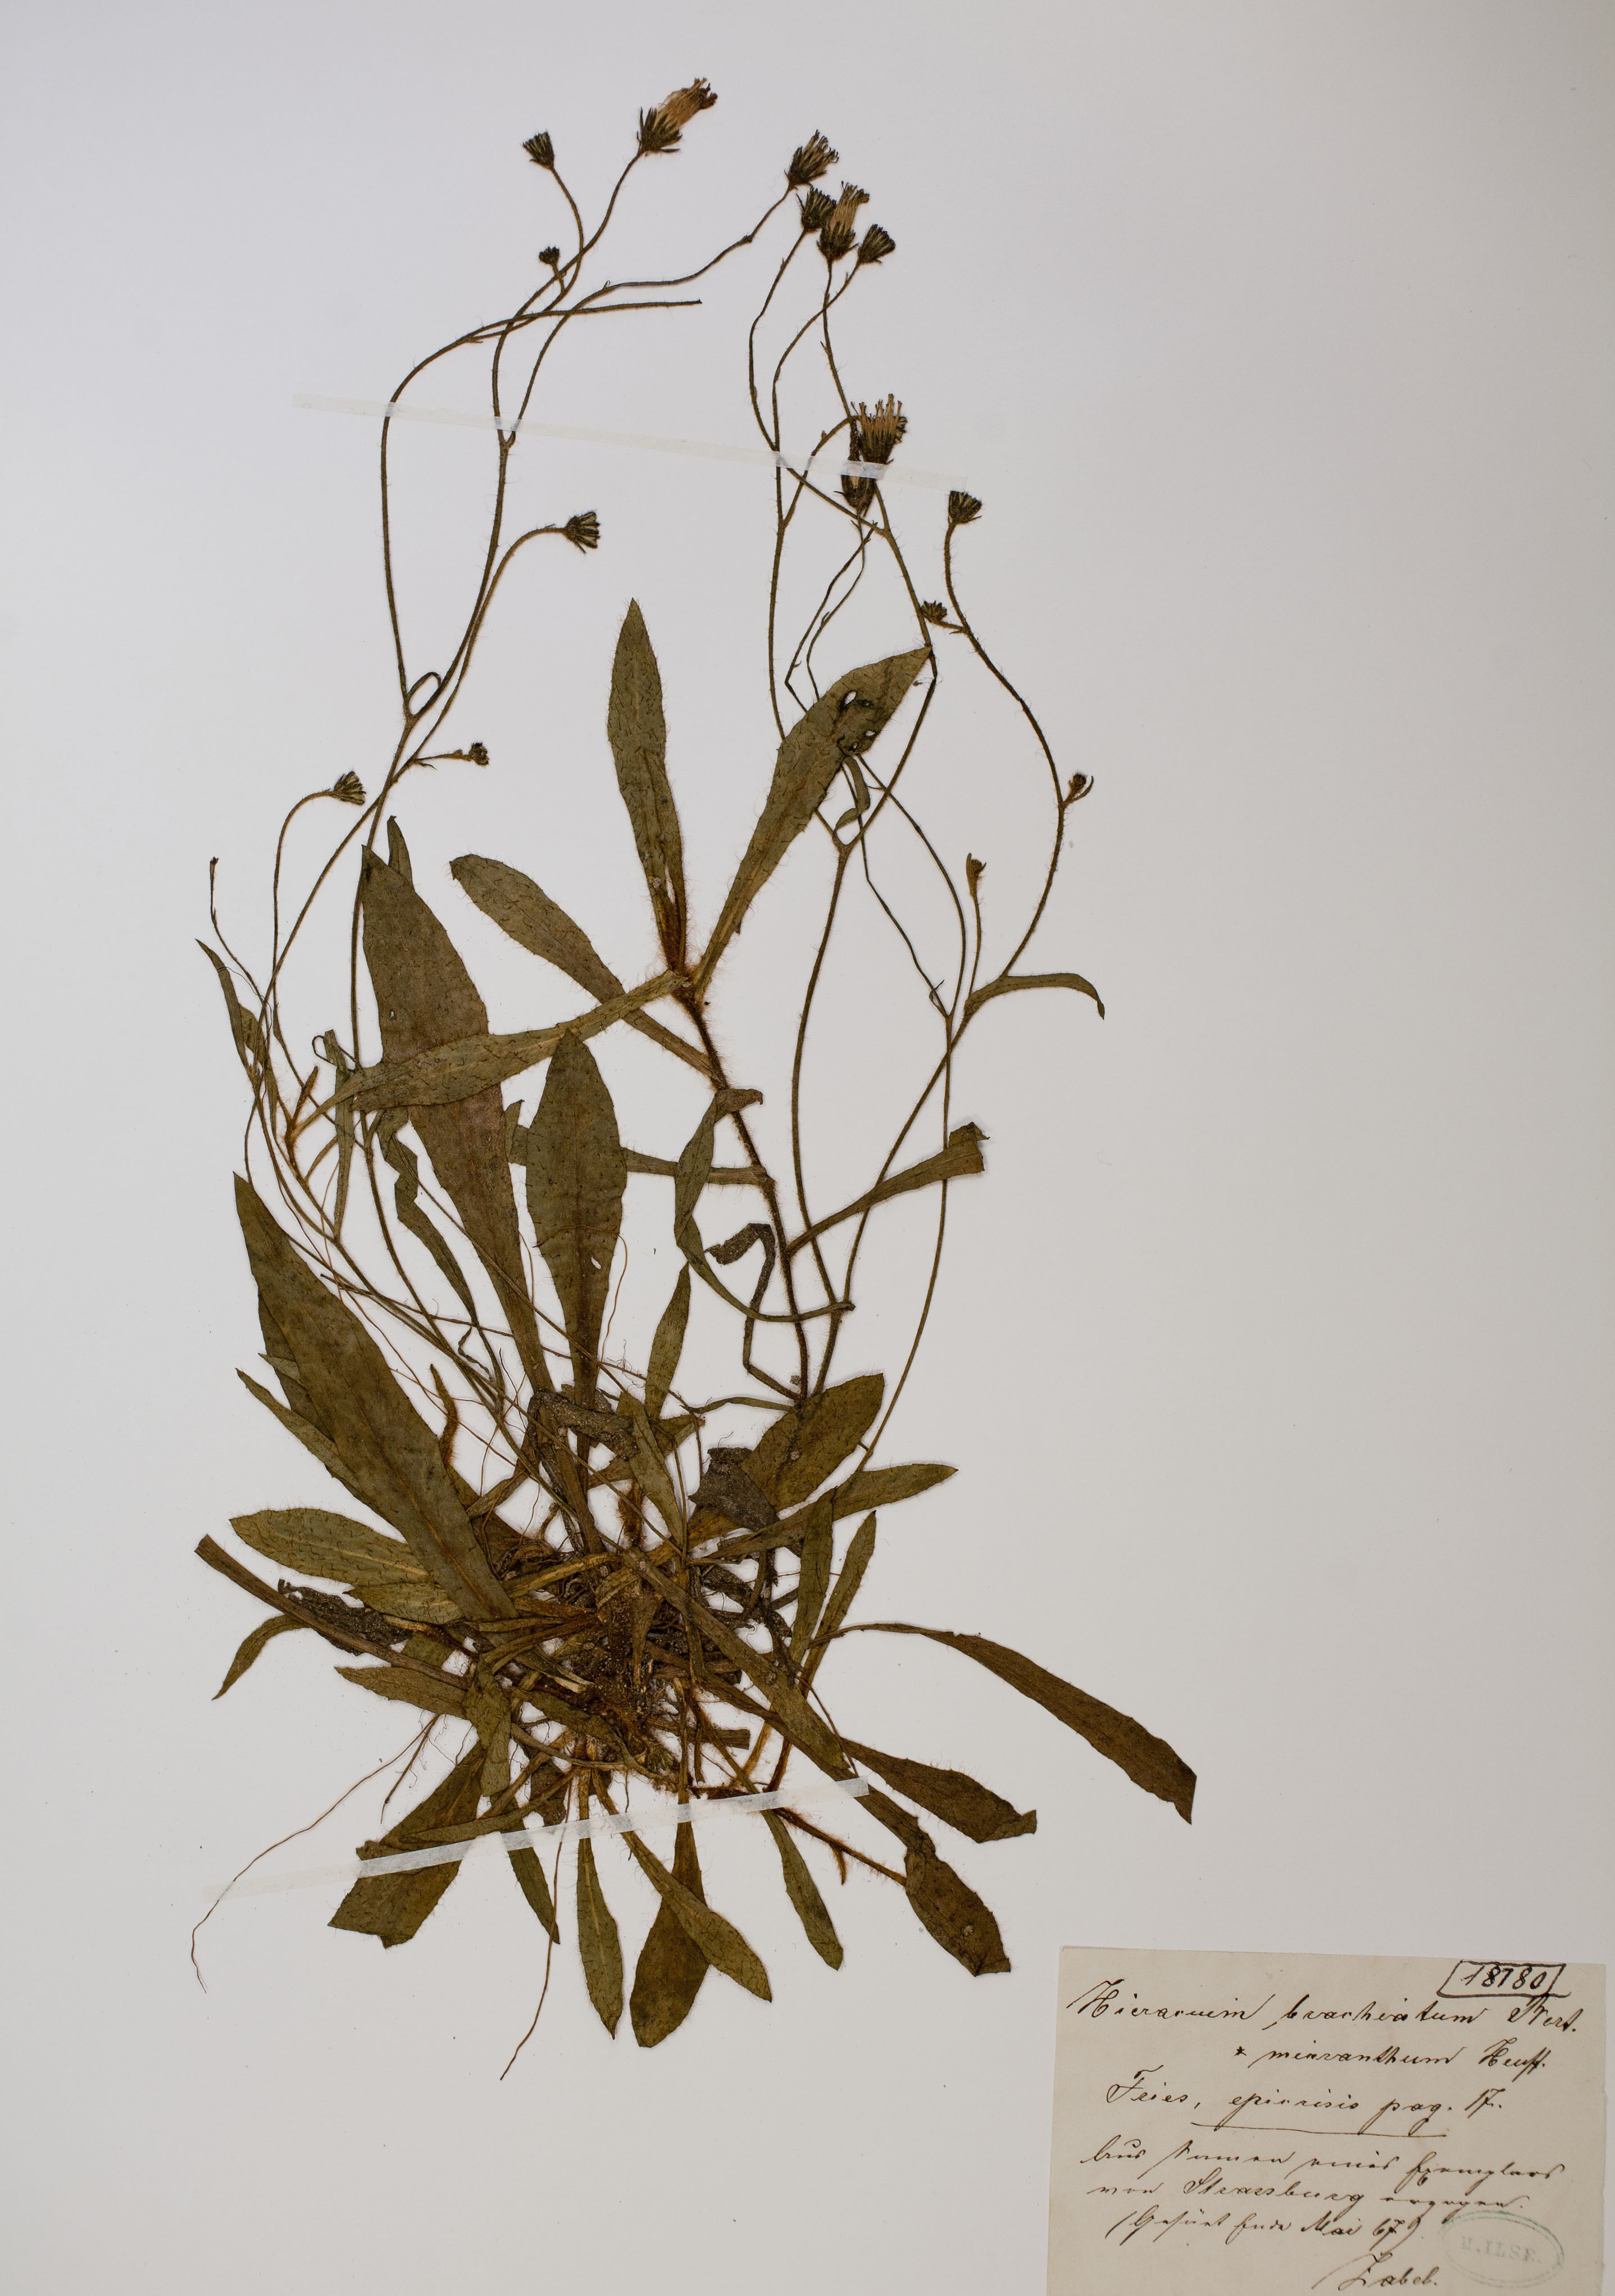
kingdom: Plantae
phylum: Tracheophyta
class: Magnoliopsida
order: Asterales
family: Asteraceae
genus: Glebionis
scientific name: Glebionis segetum
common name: Corndaisy
